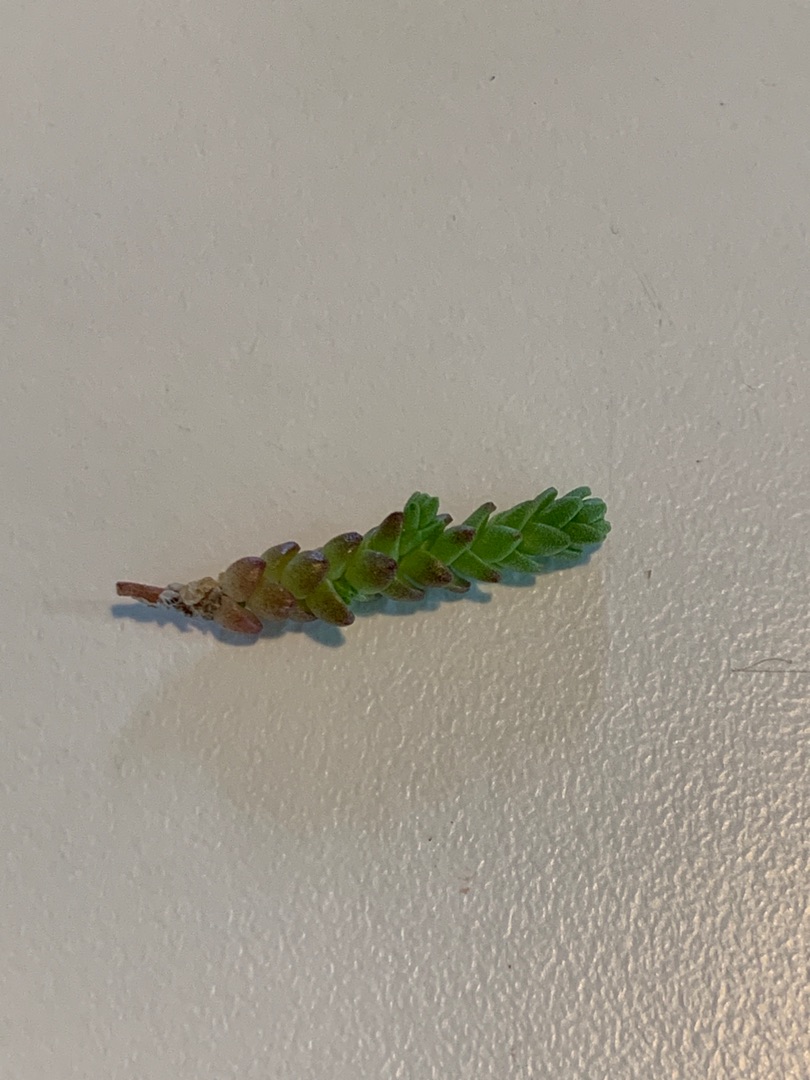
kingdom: Plantae
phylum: Tracheophyta
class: Magnoliopsida
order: Saxifragales
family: Crassulaceae
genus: Sedum
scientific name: Sedum acre
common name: Bidende stenurt
